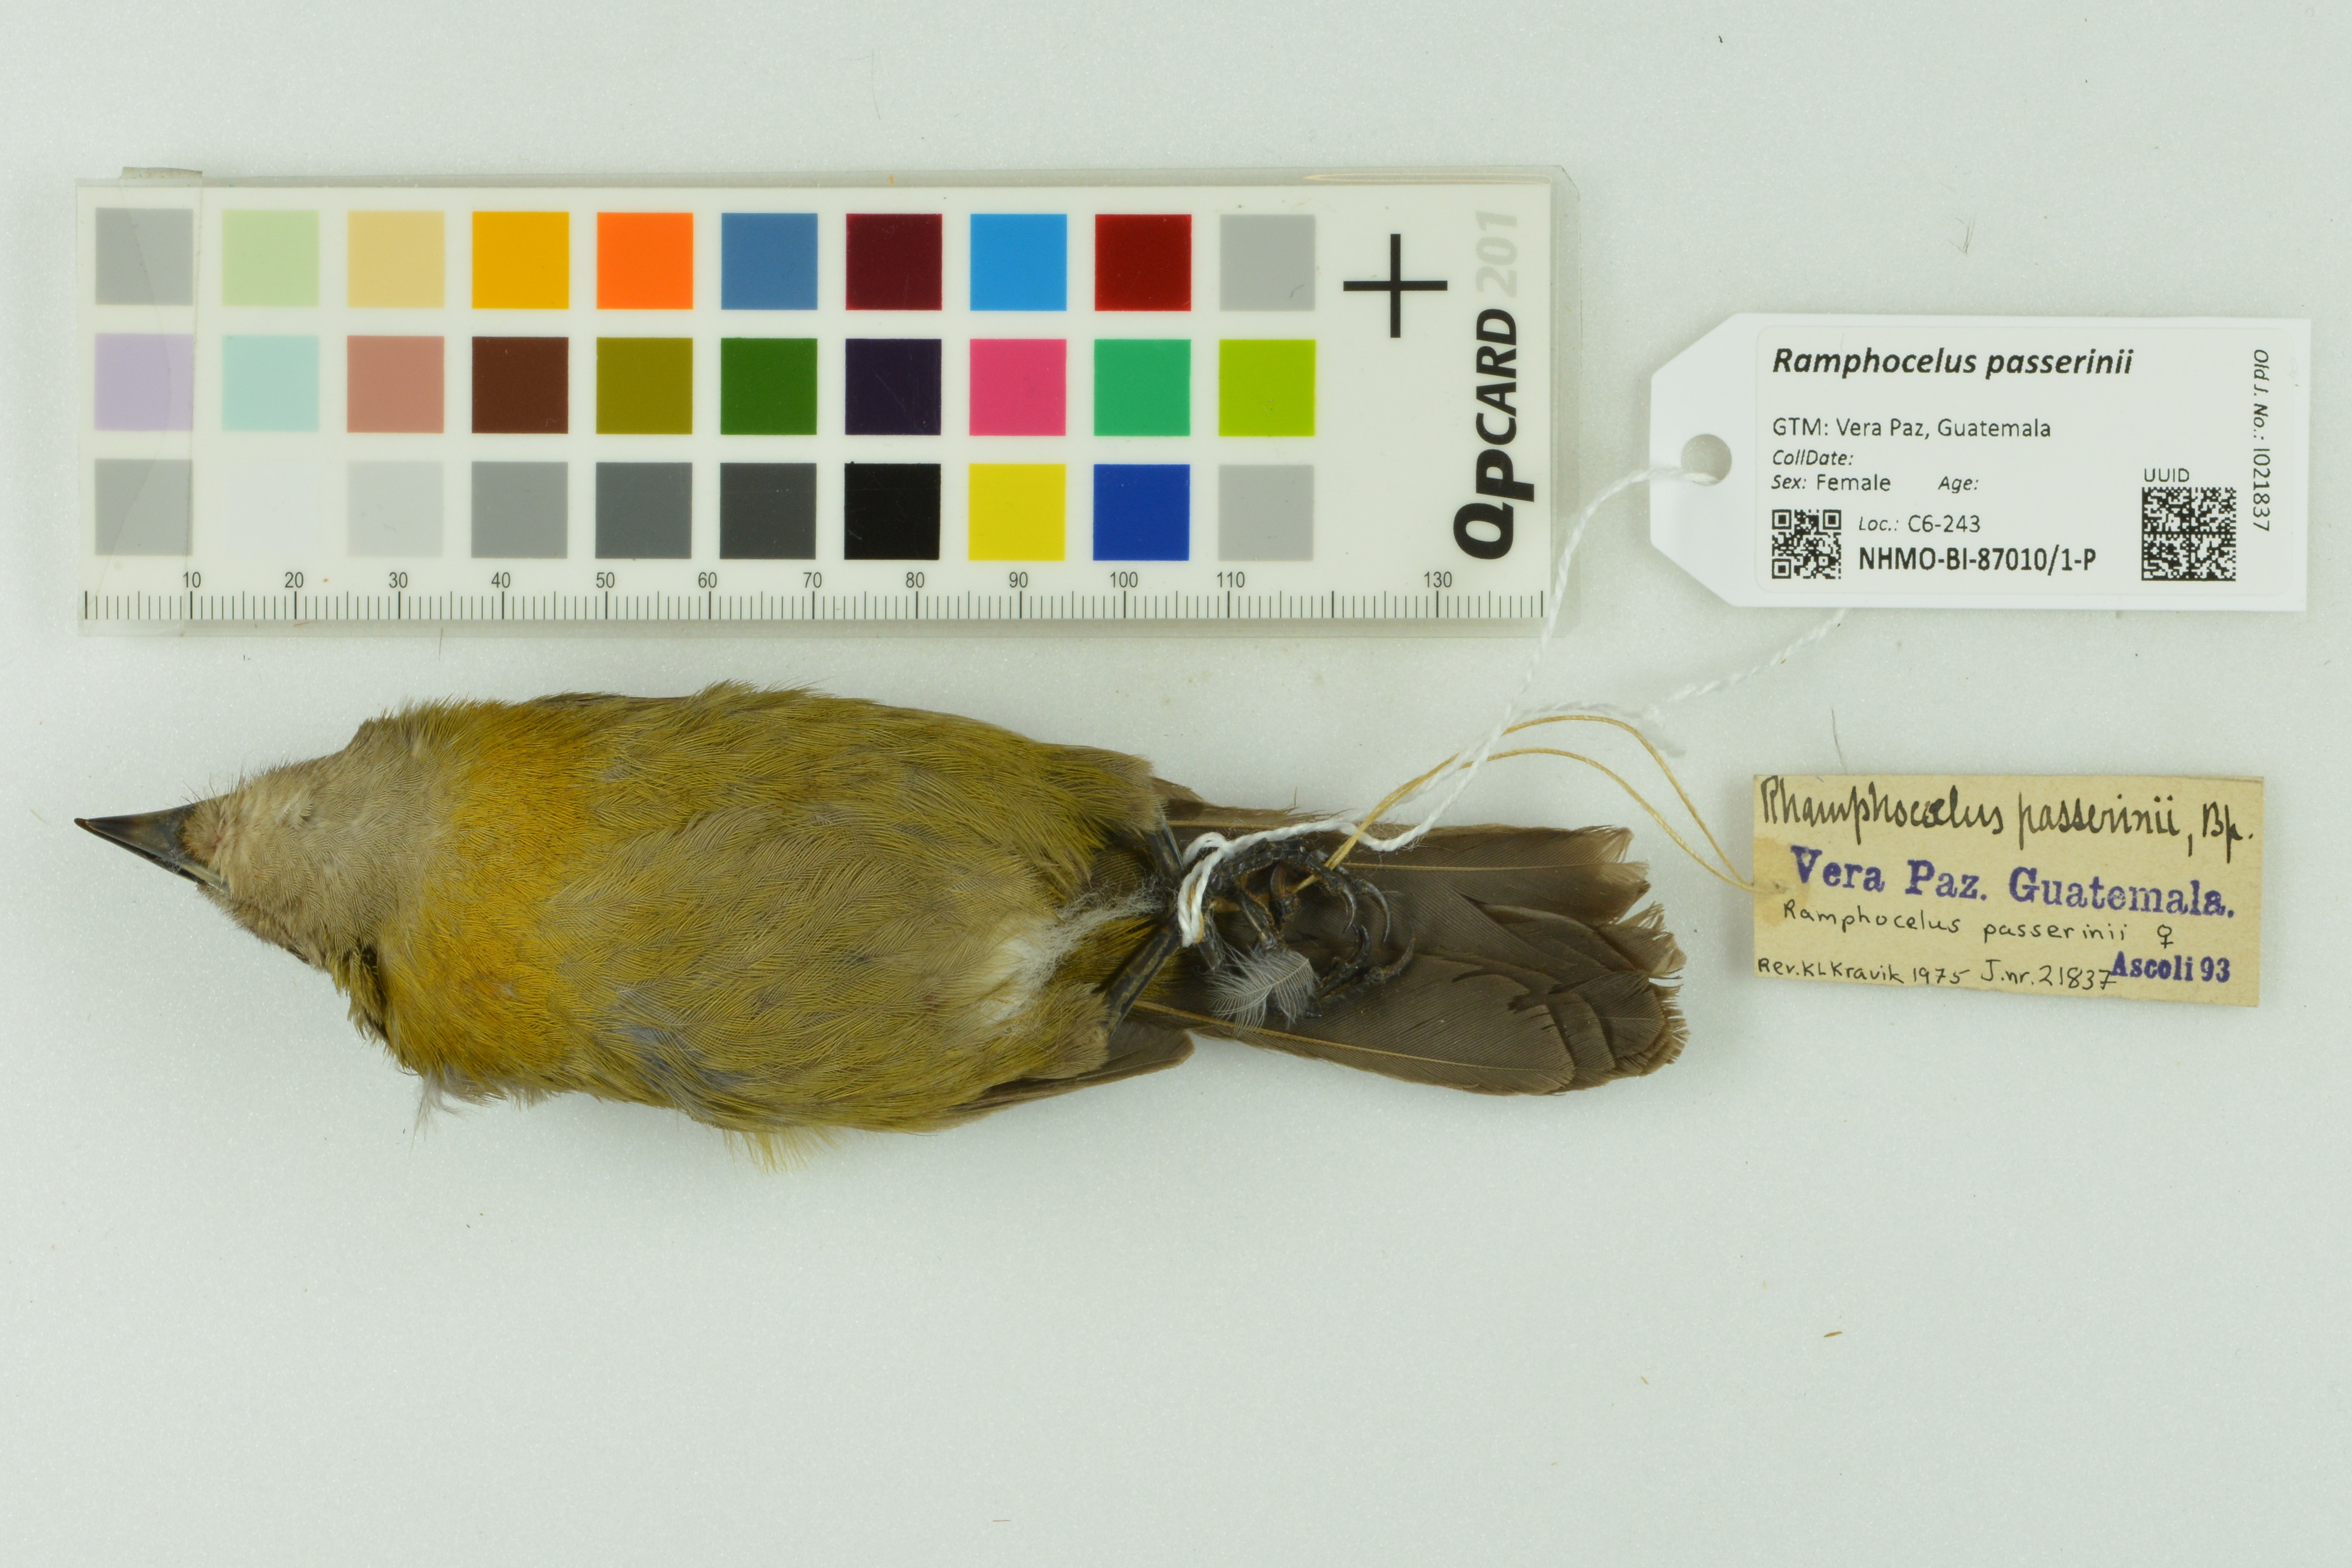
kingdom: Animalia
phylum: Chordata
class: Aves
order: Passeriformes
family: Thraupidae
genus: Ramphocelus
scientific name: Ramphocelus passerinii
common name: Passerini's tanager
